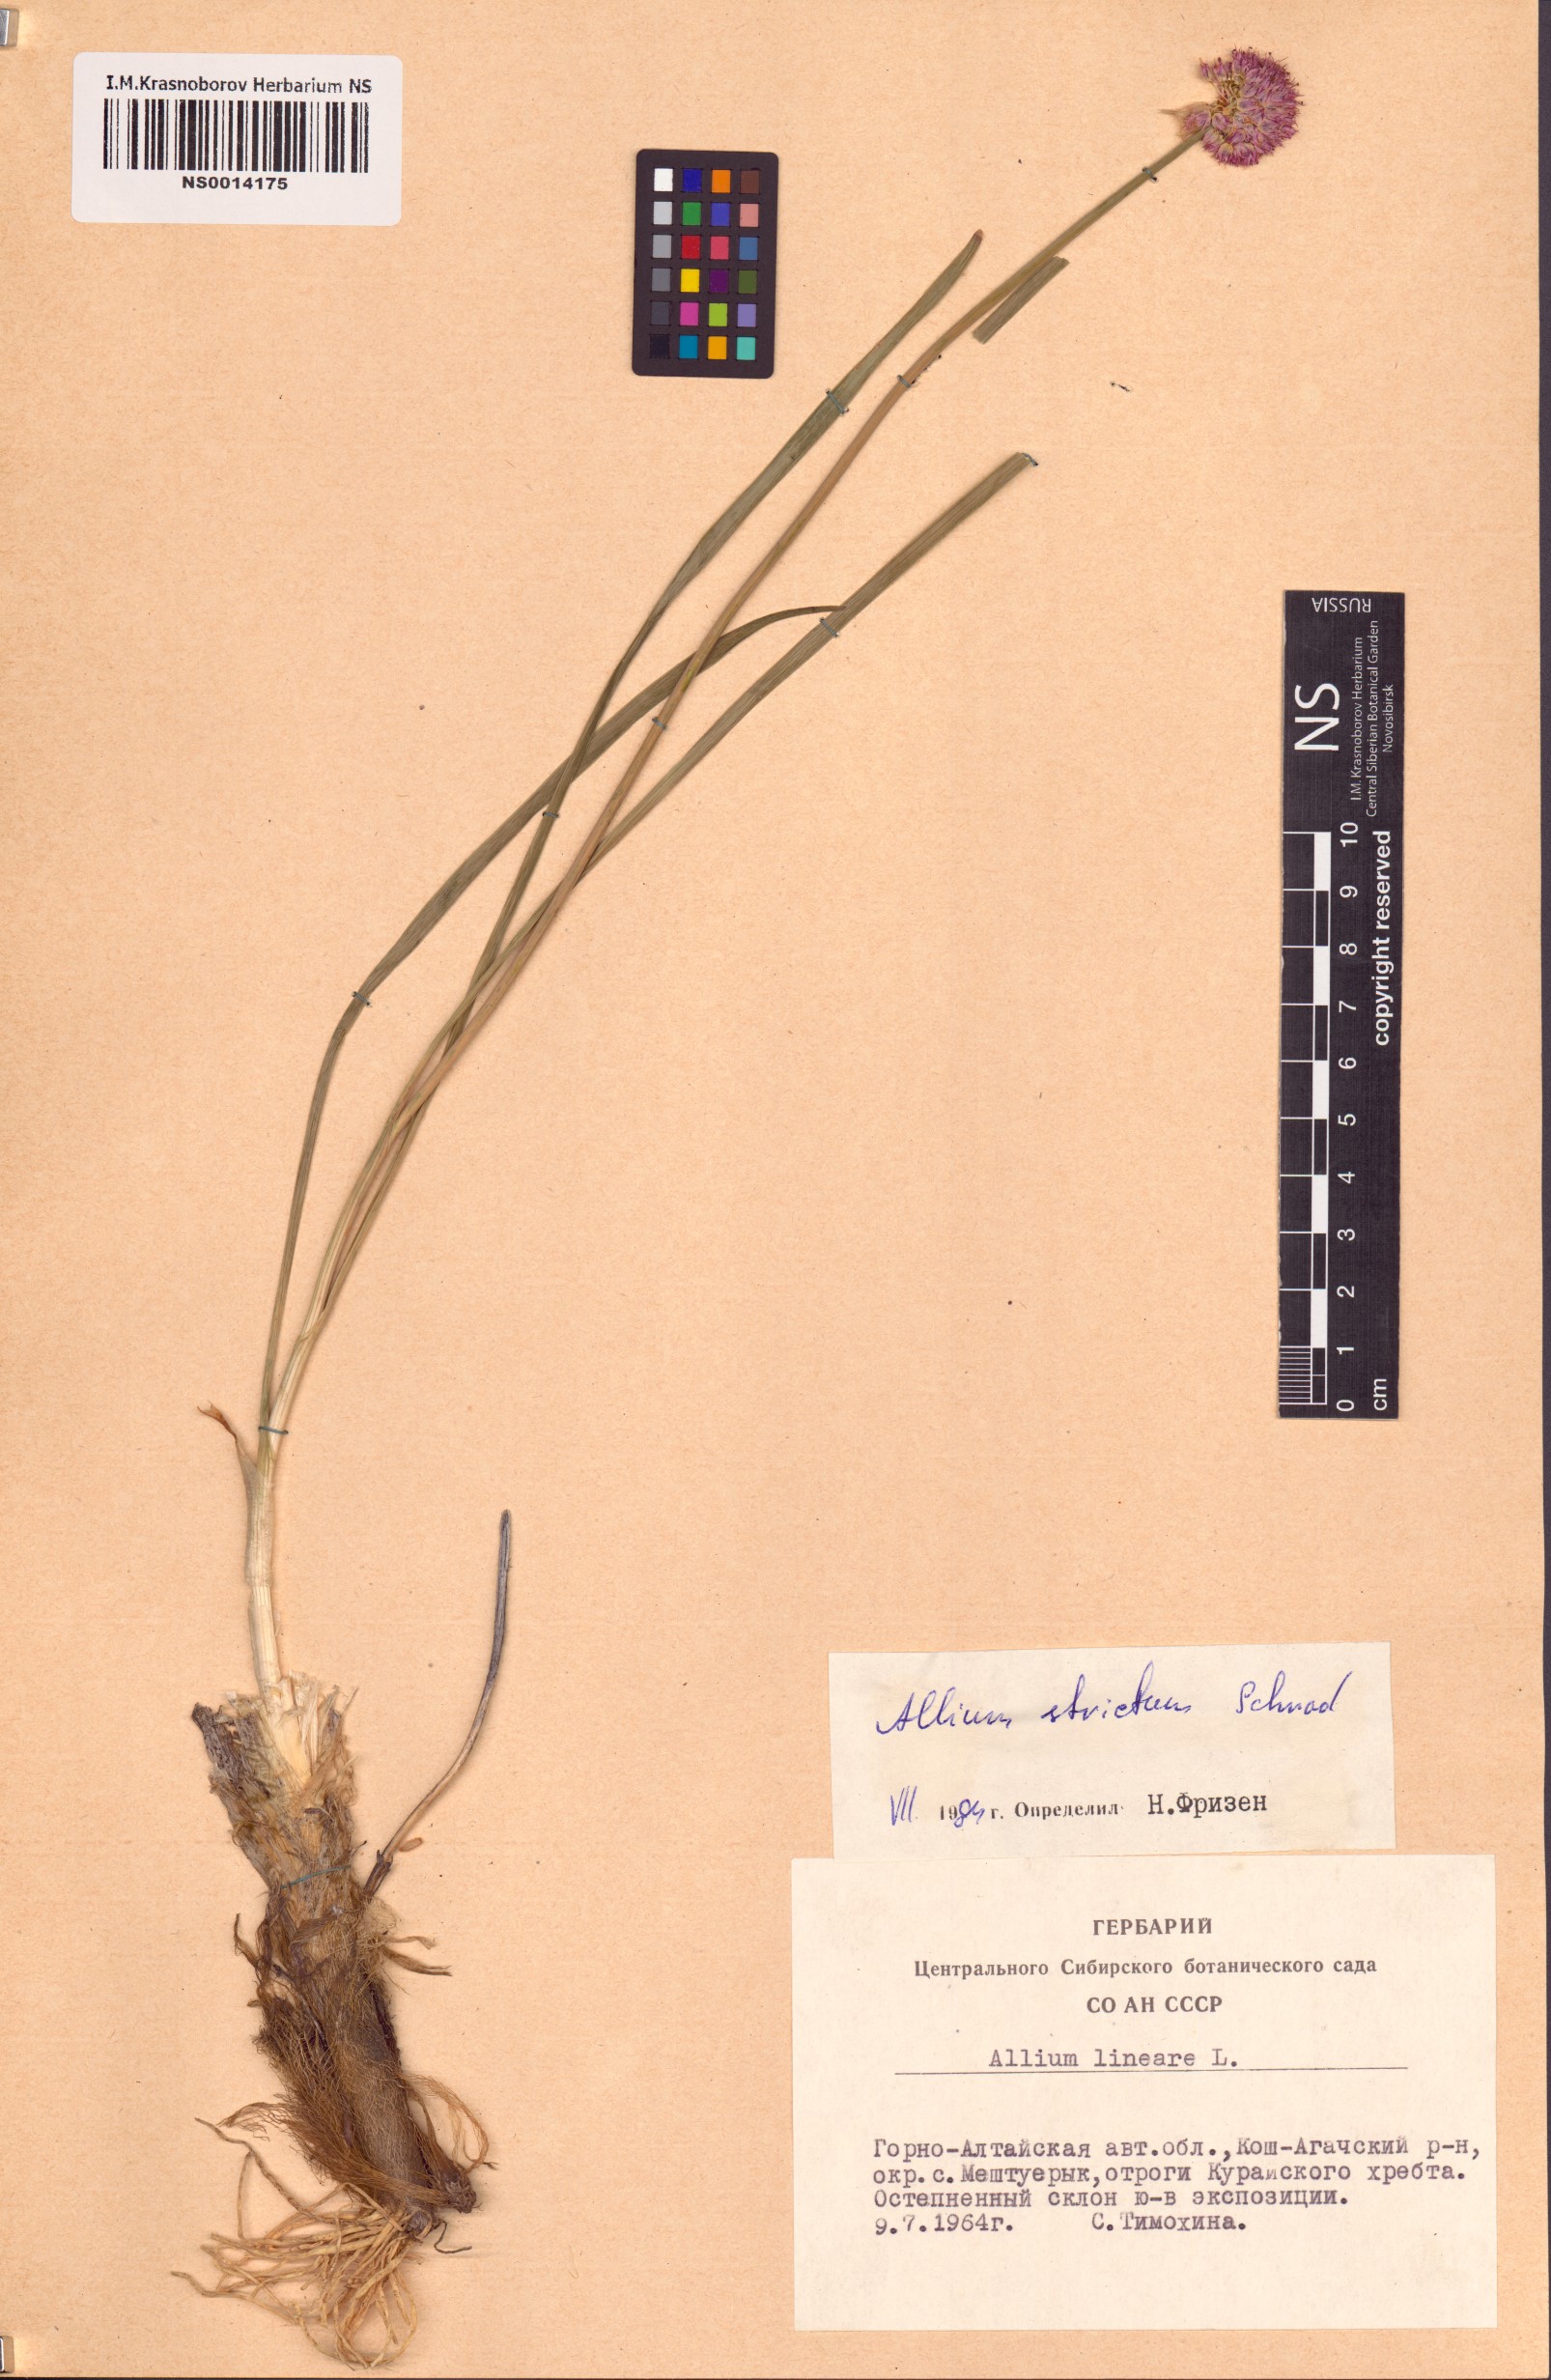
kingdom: Plantae
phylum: Tracheophyta
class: Liliopsida
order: Asparagales
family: Amaryllidaceae
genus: Allium
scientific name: Allium strictum
